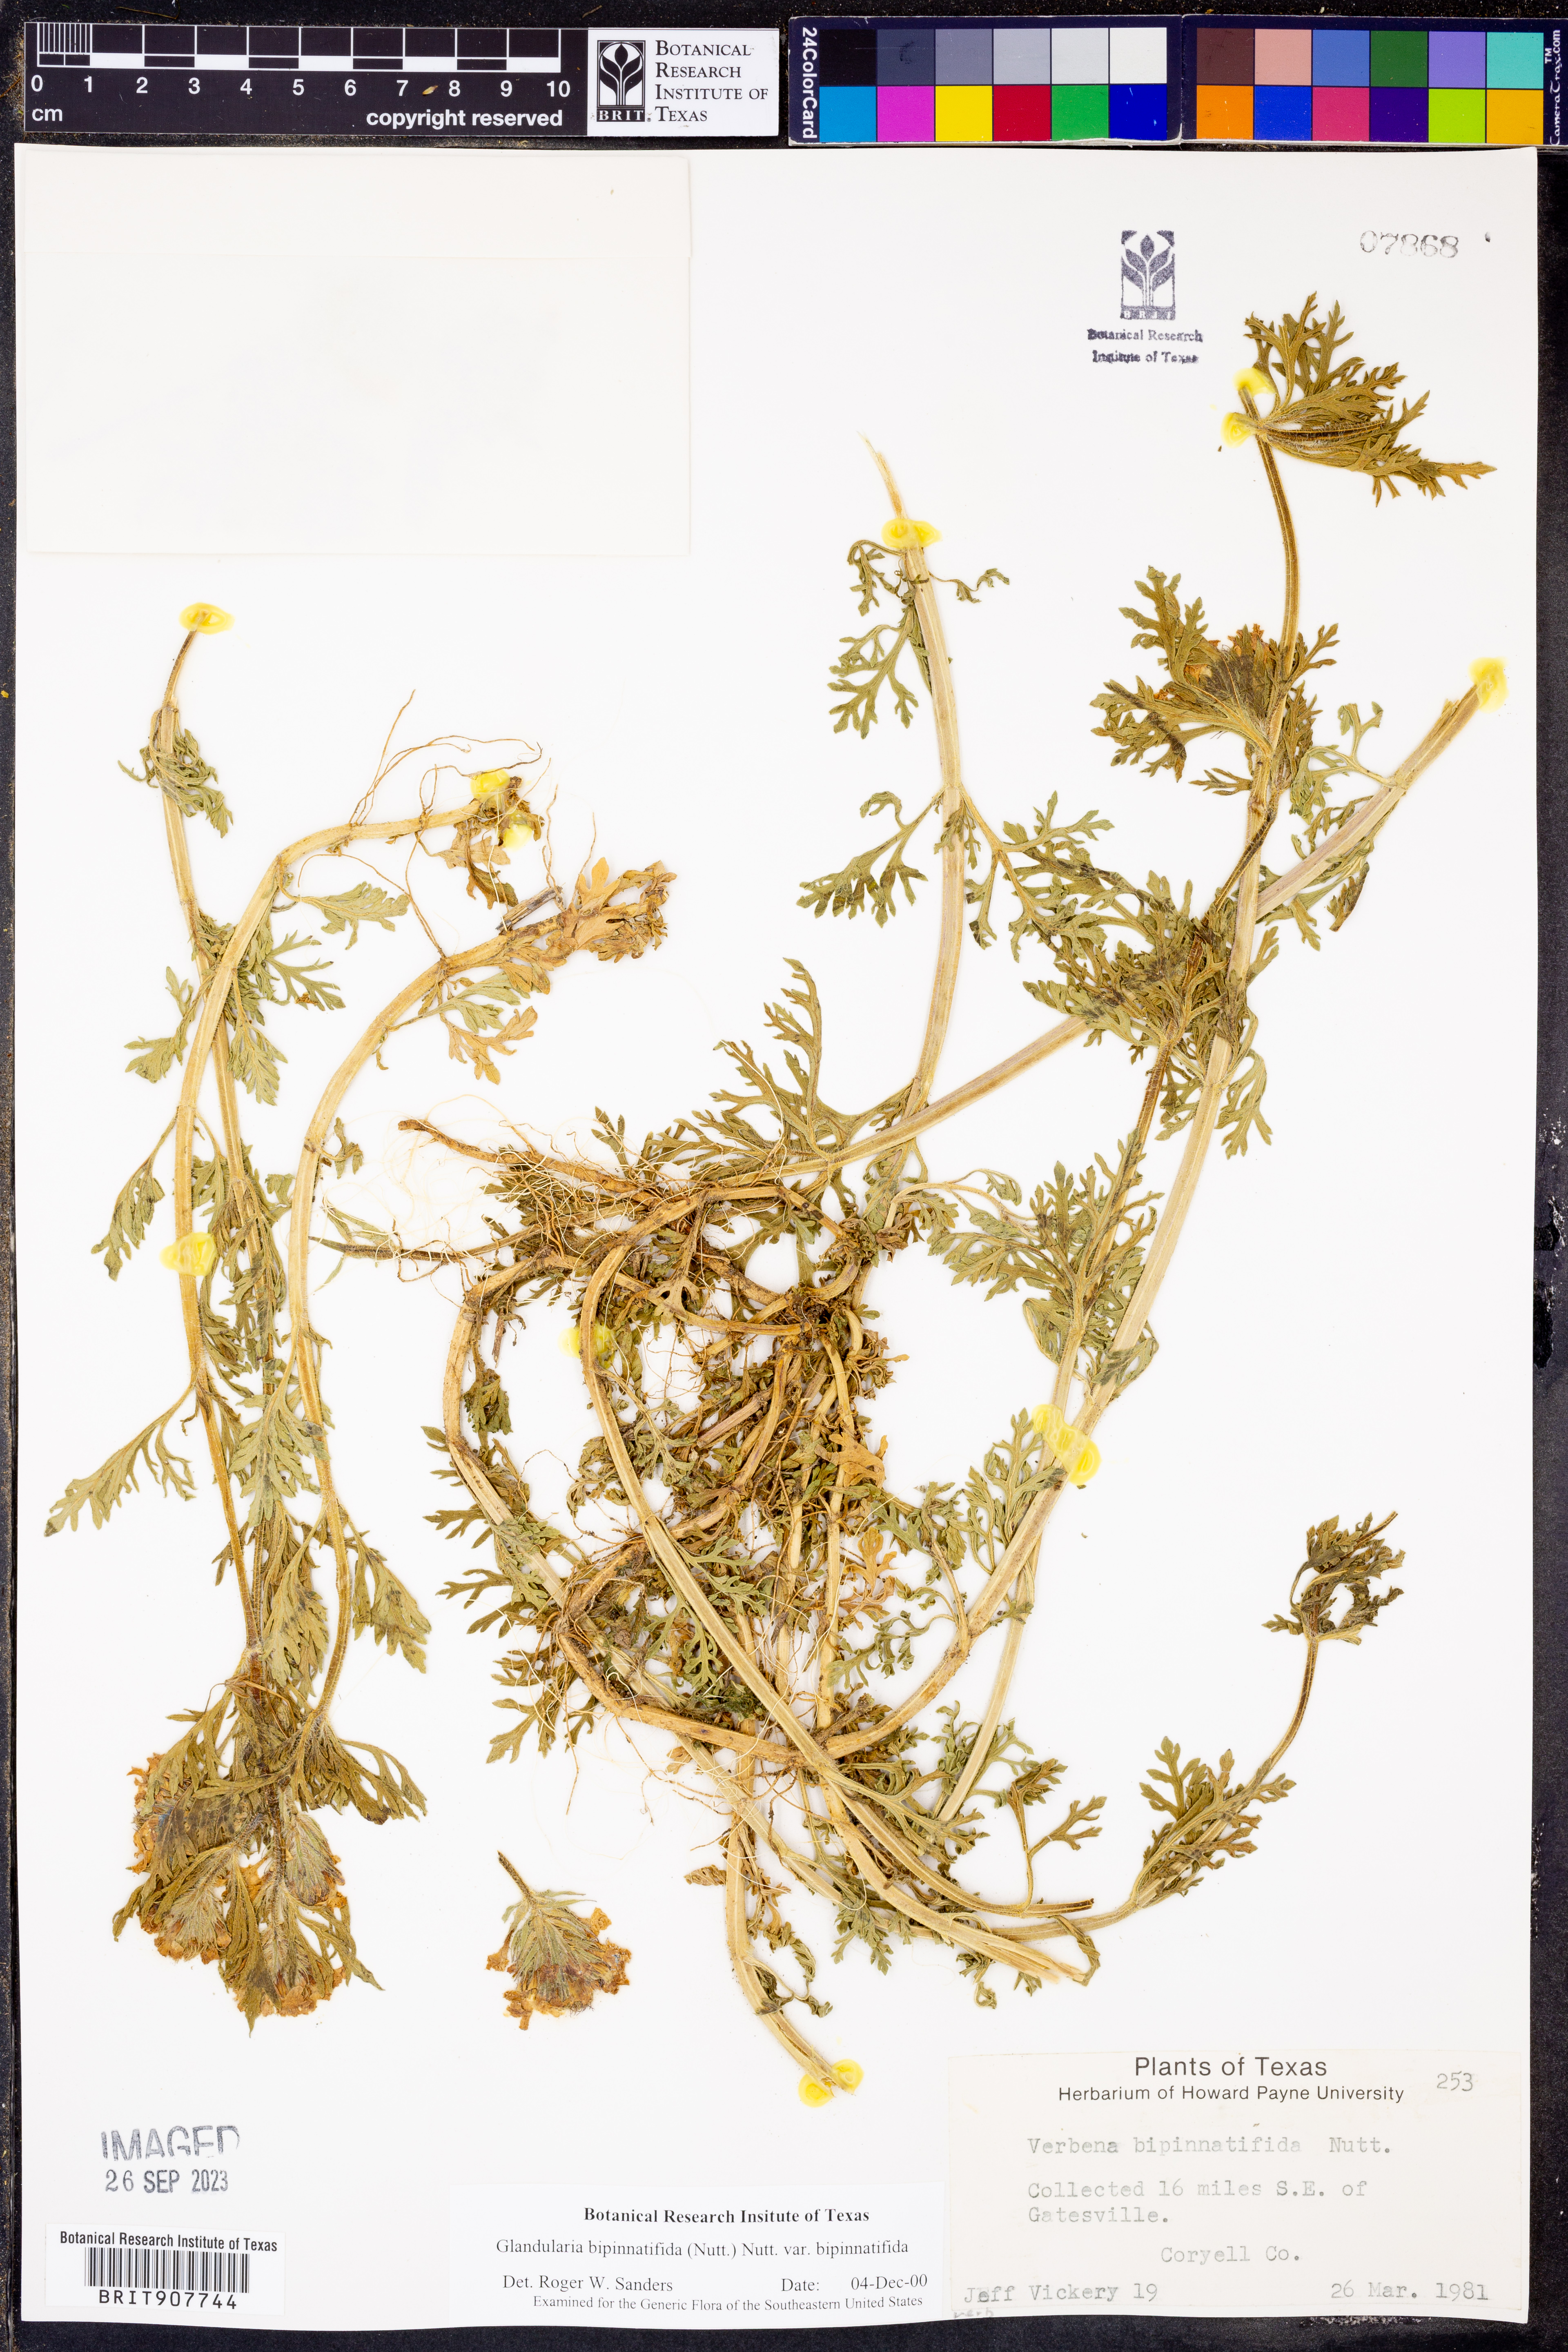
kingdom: Plantae
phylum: Tracheophyta
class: Magnoliopsida
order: Lamiales
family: Verbenaceae
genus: Verbena
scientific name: Verbena bipinnatifida
